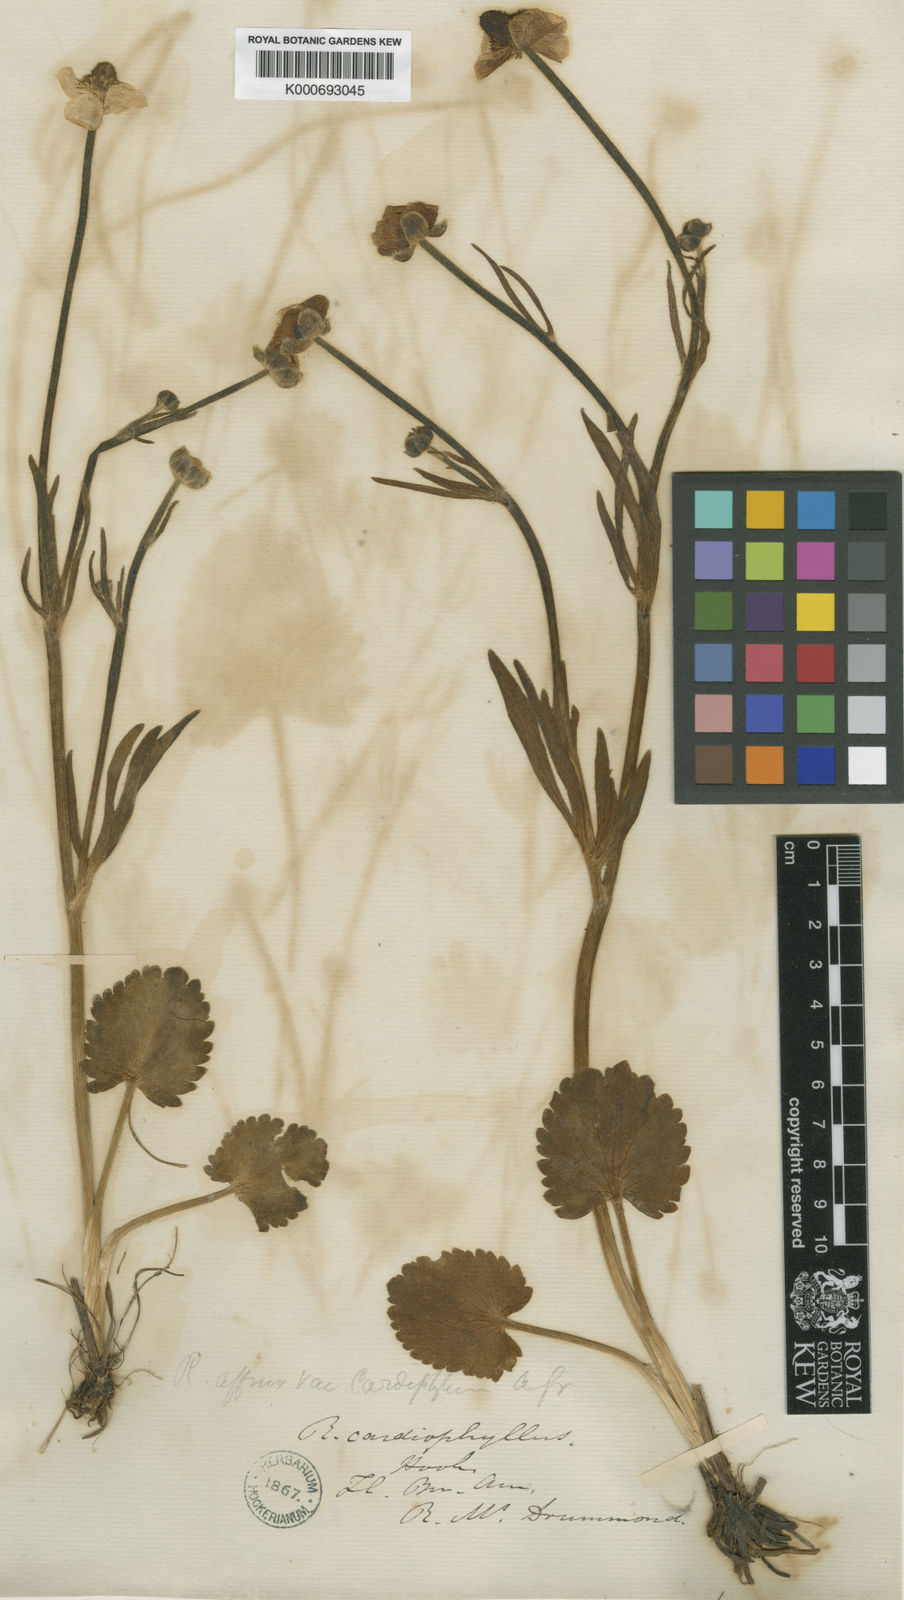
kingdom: Plantae
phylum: Tracheophyta
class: Magnoliopsida
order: Ranunculales
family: Ranunculaceae
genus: Ranunculus
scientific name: Ranunculus cardiophyllus
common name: Heart-leaved buttercup
